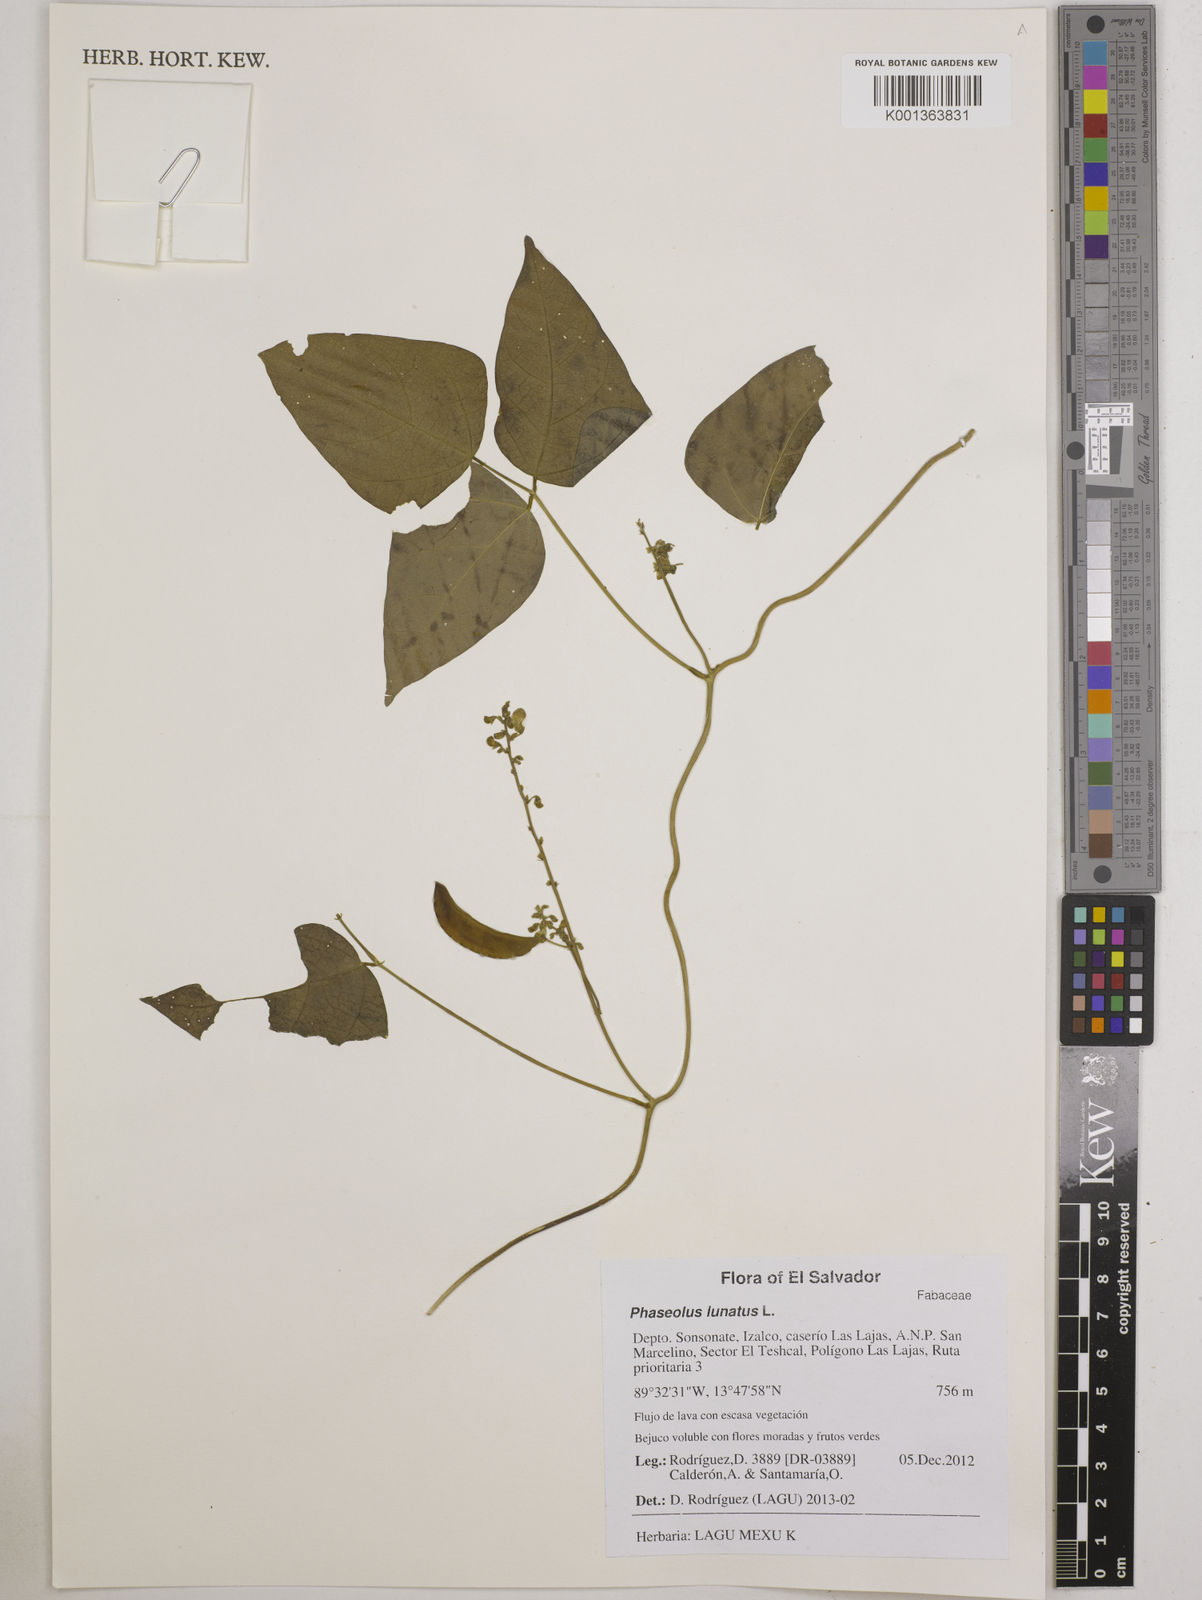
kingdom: Plantae
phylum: Tracheophyta
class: Magnoliopsida
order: Fabales
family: Fabaceae
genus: Phaseolus
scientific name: Phaseolus lunatus
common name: Sieva bean
